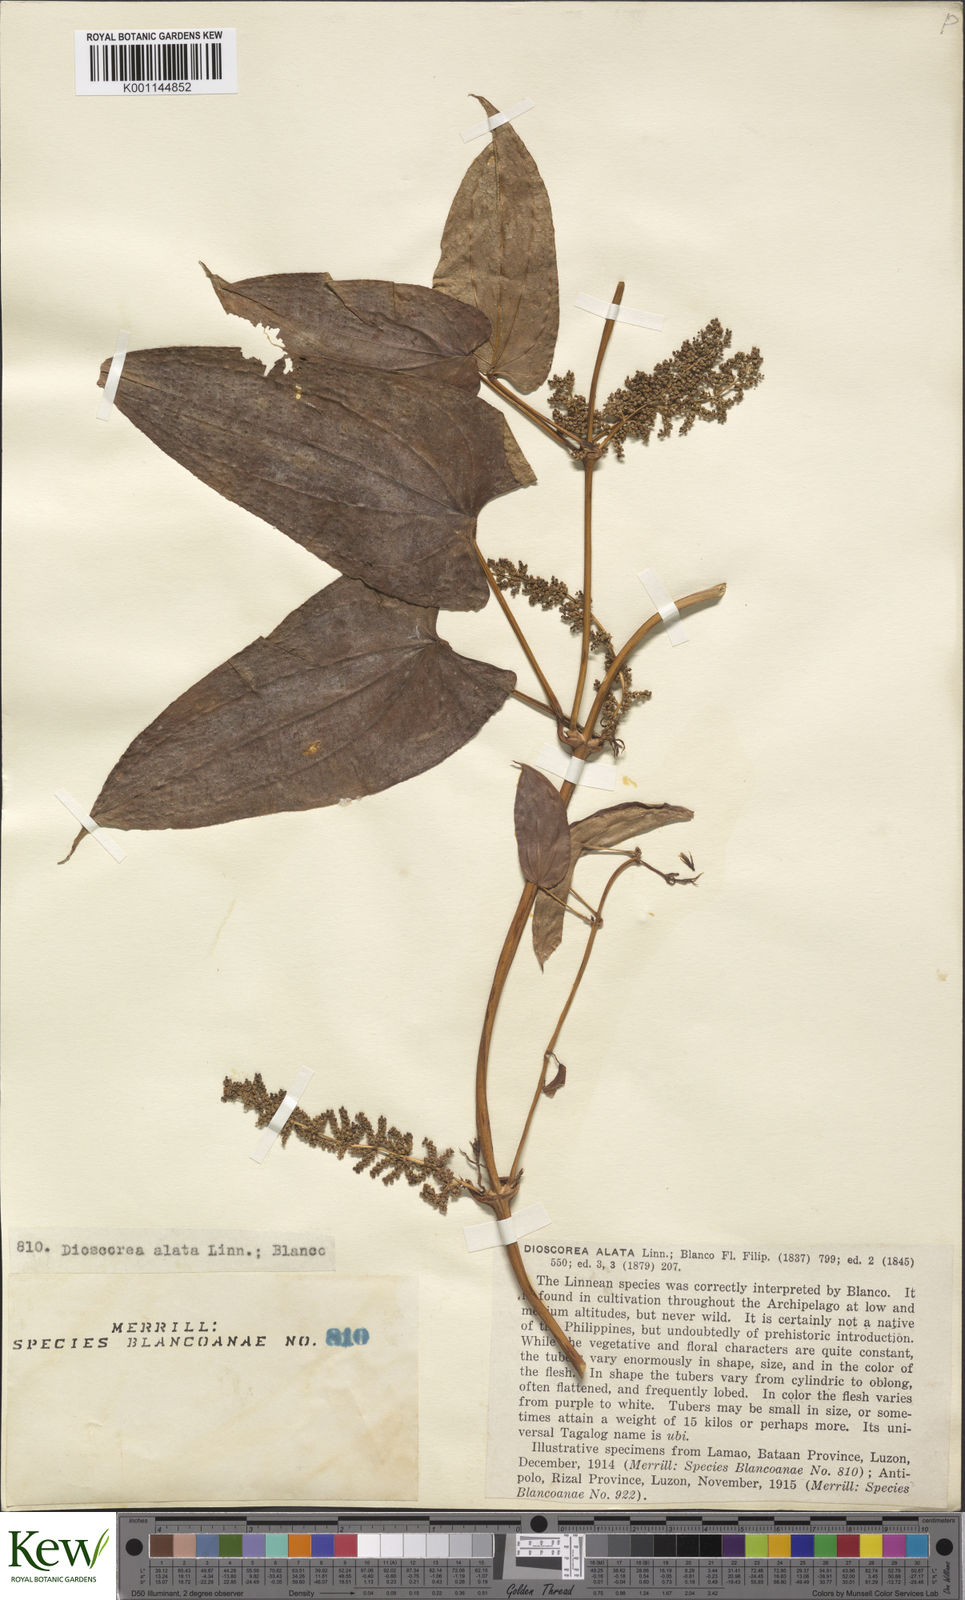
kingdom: Plantae
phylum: Tracheophyta
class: Liliopsida
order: Dioscoreales
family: Dioscoreaceae
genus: Dioscorea
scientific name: Dioscorea alata
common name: Water yam
